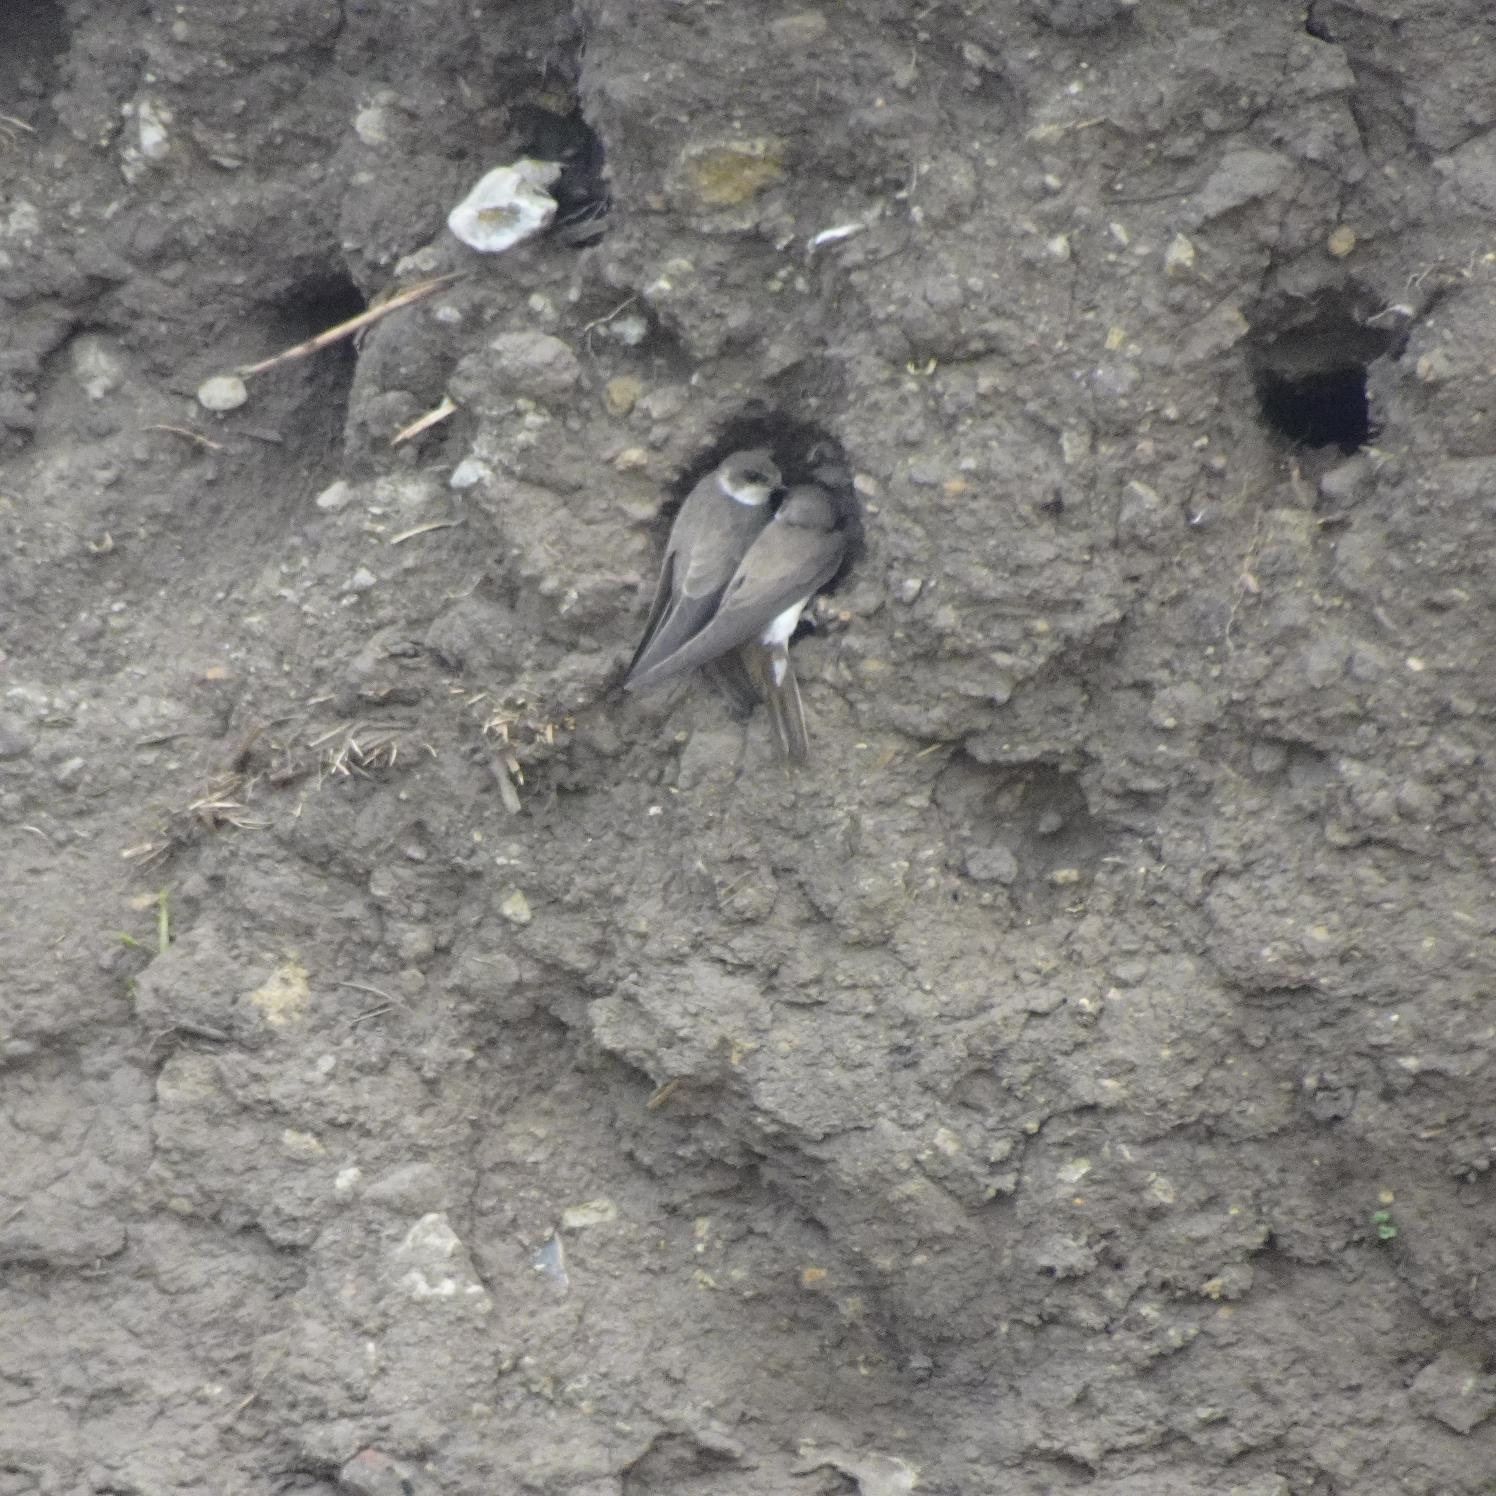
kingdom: Animalia
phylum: Chordata
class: Aves
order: Passeriformes
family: Hirundinidae
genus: Riparia
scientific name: Riparia riparia
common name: Digesvale
